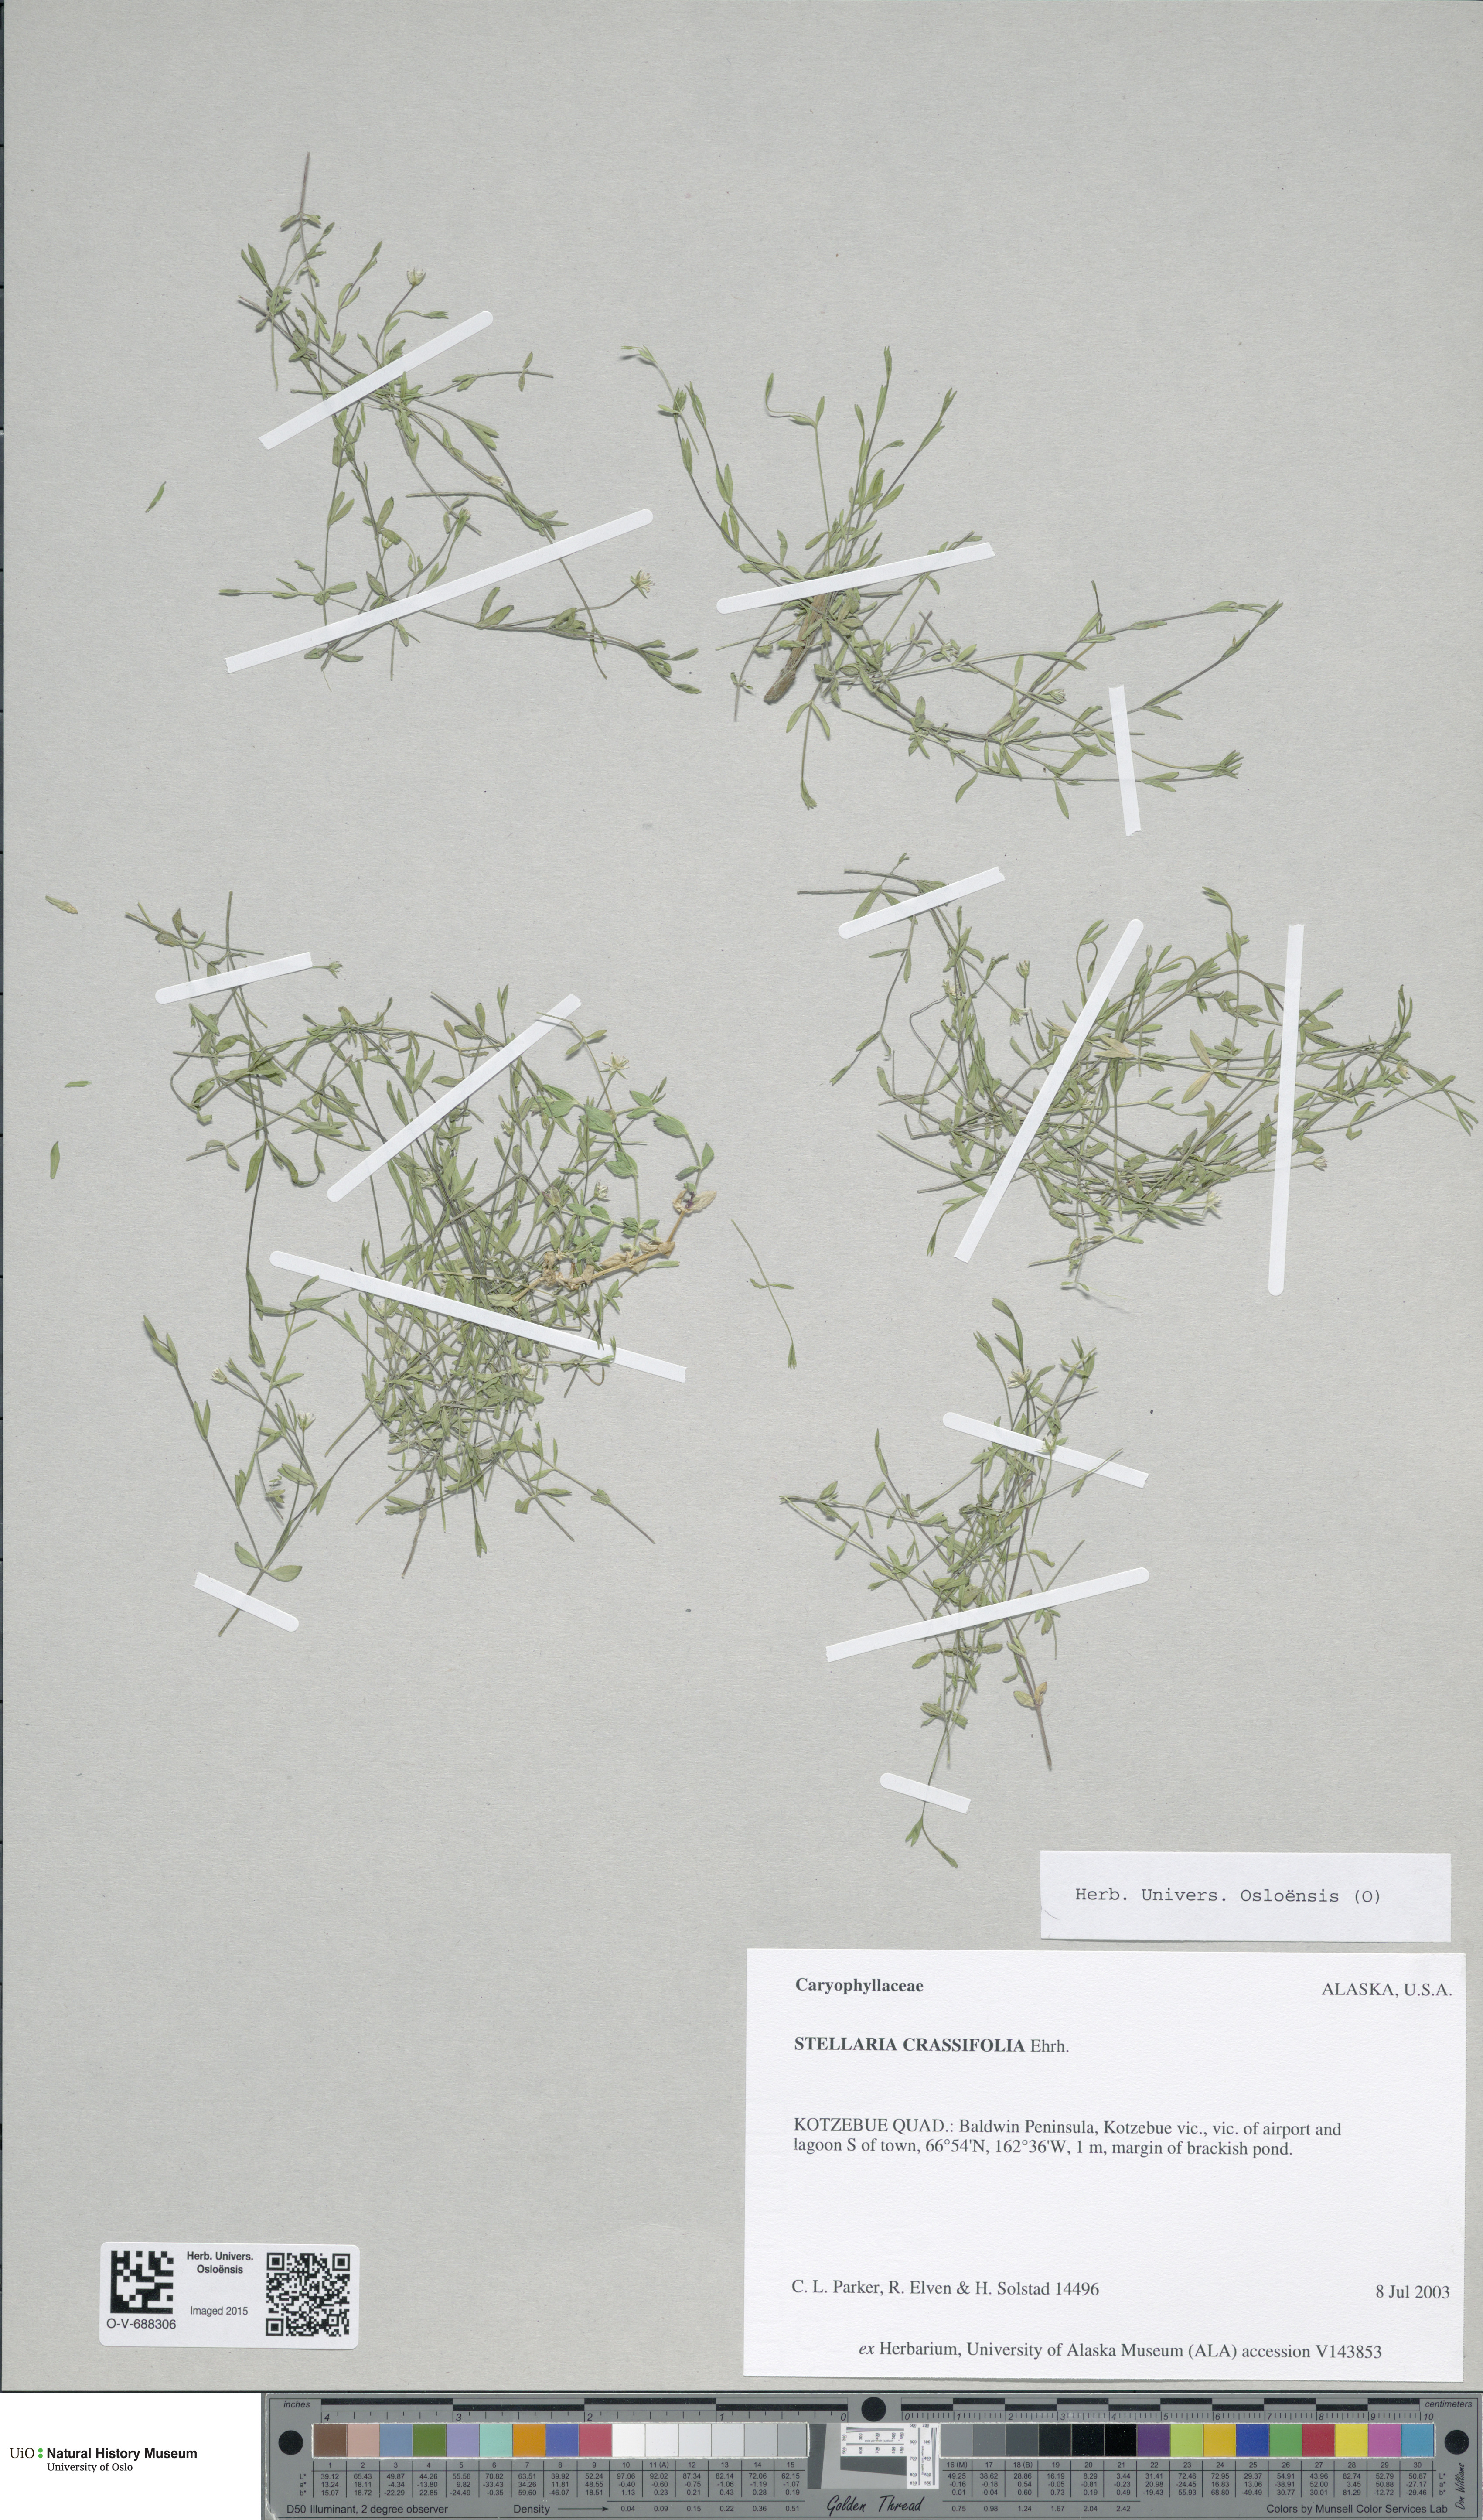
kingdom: Plantae
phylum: Tracheophyta
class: Magnoliopsida
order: Caryophyllales
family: Caryophyllaceae
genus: Stellaria
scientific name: Stellaria crassifolia
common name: Fleshy starwort
